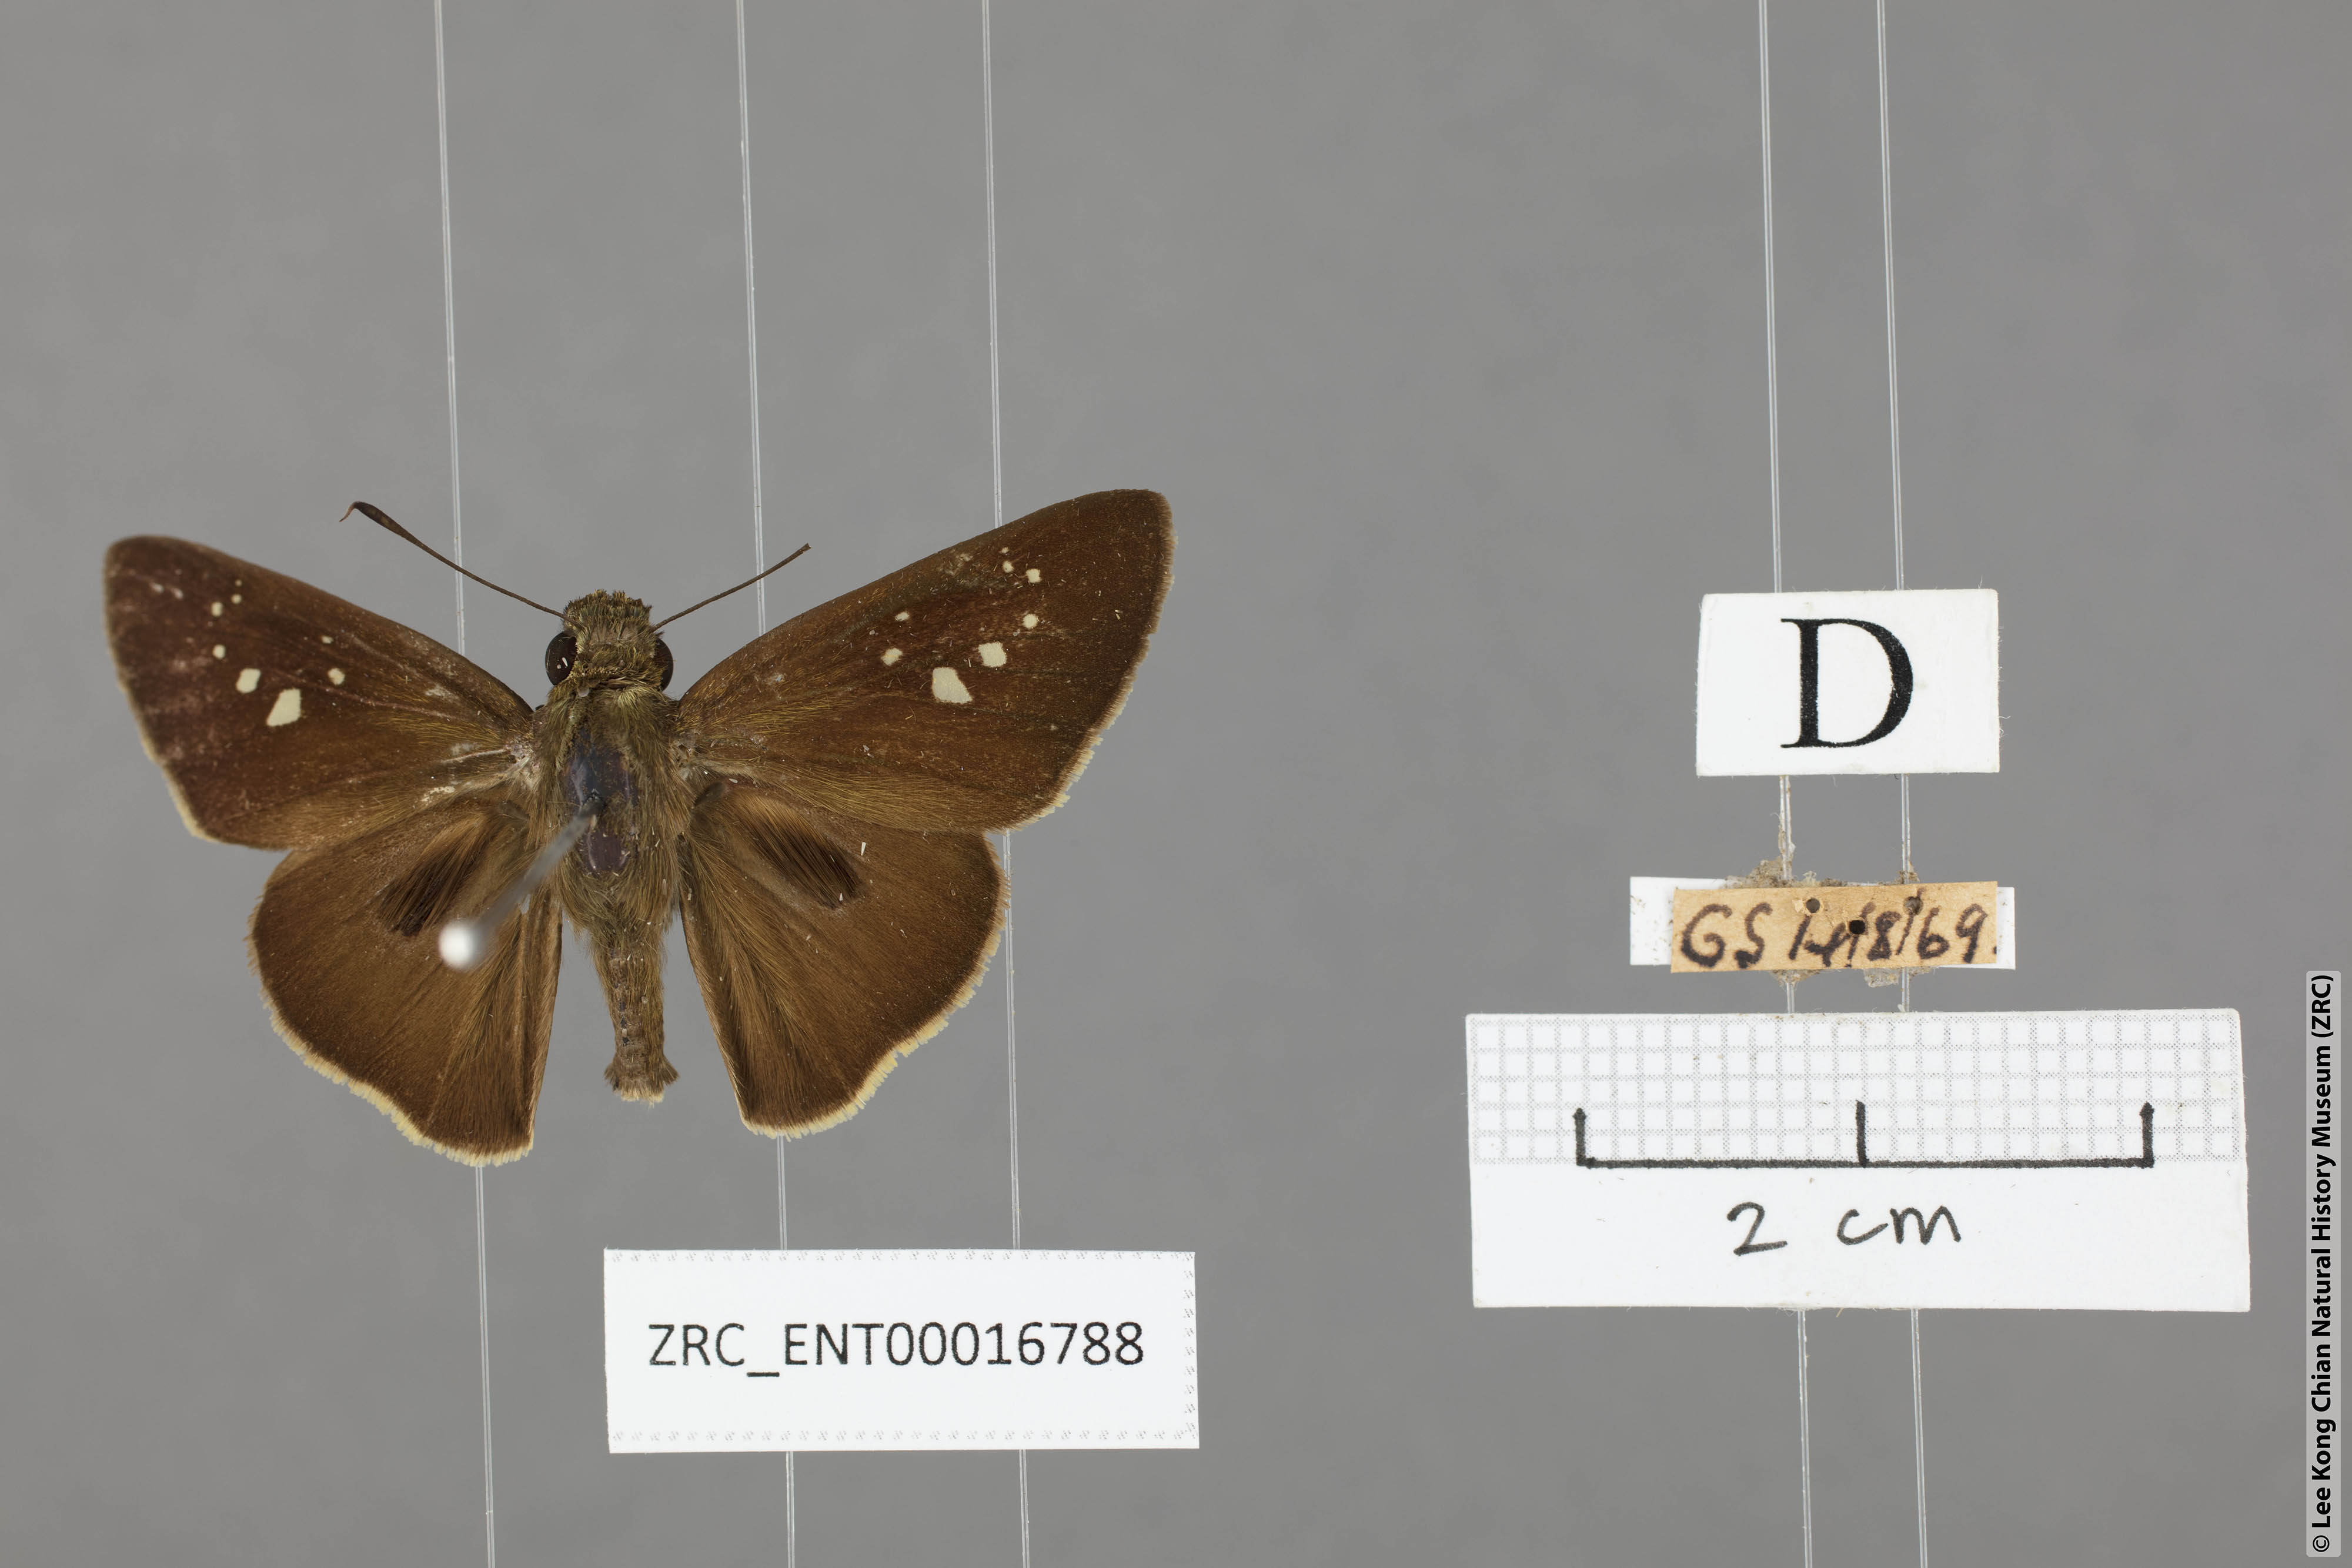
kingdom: Animalia
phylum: Arthropoda
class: Insecta
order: Lepidoptera
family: Hesperiidae
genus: Baoris
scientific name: Baoris oceia
